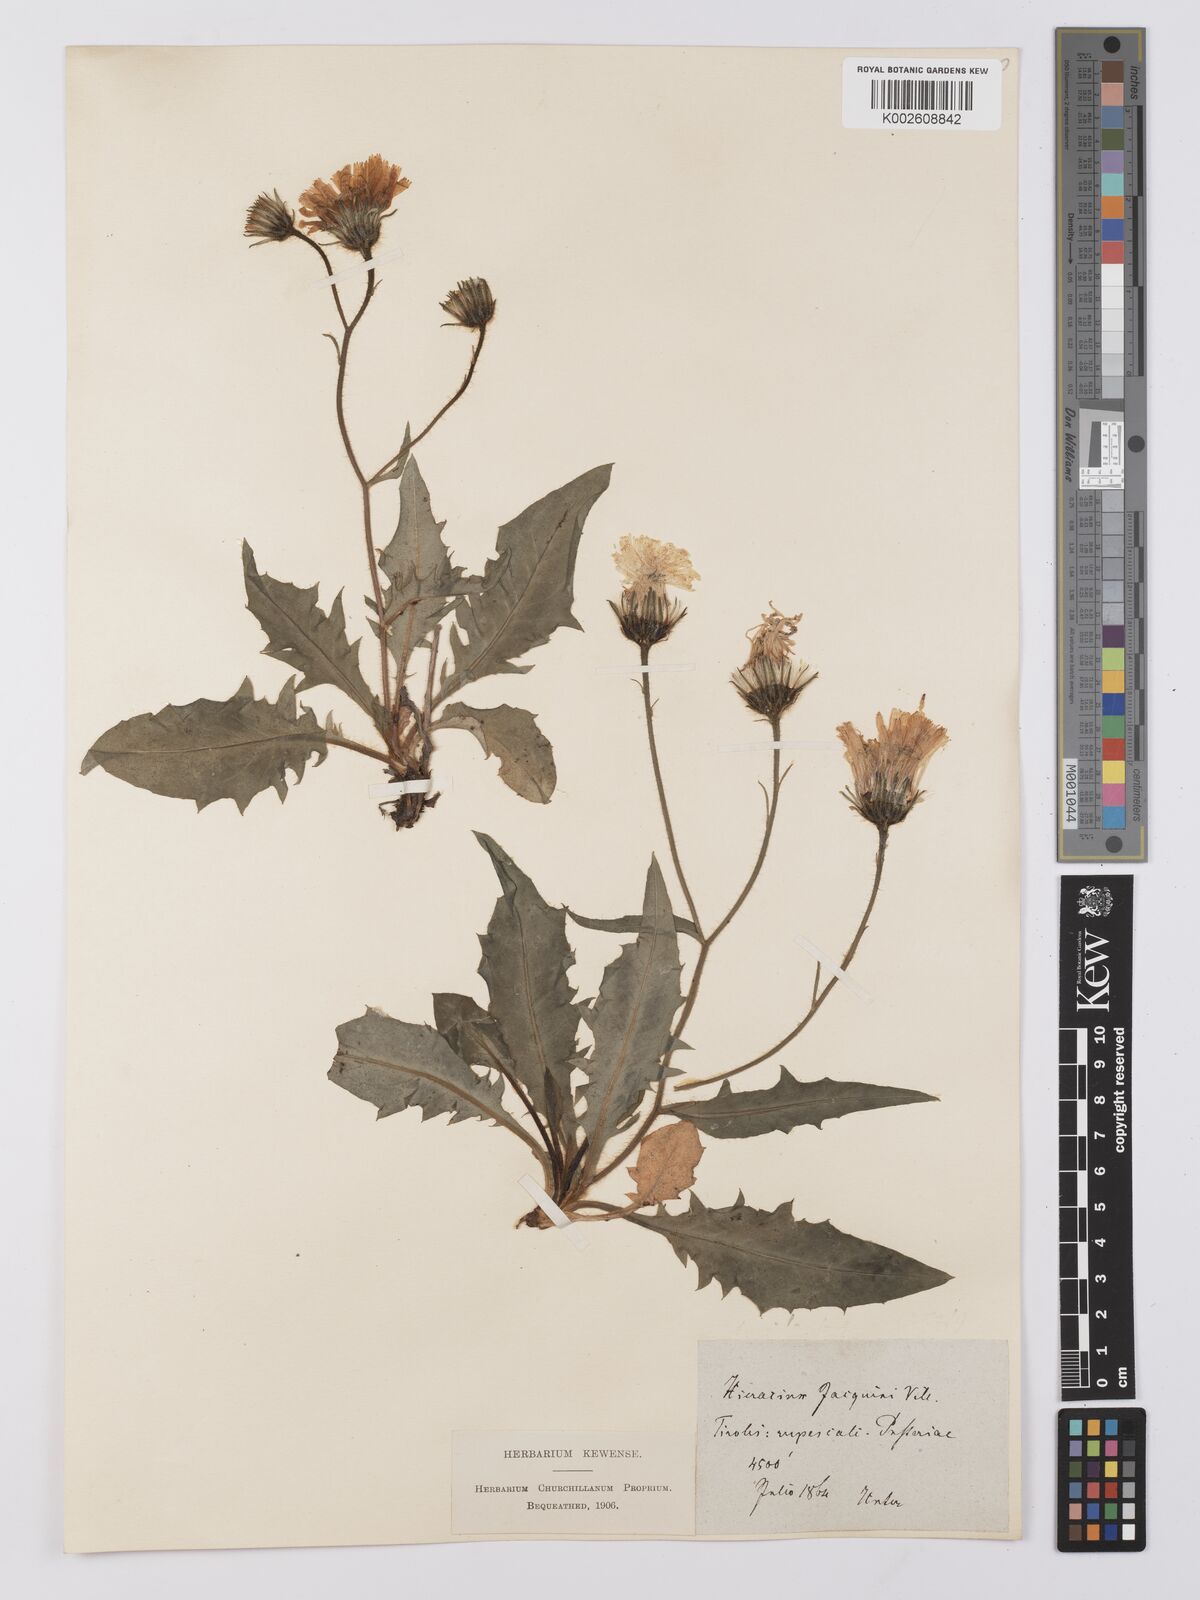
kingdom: Plantae
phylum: Tracheophyta
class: Magnoliopsida
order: Asterales
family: Asteraceae
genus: Hieracium
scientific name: Hieracium balbisianum
